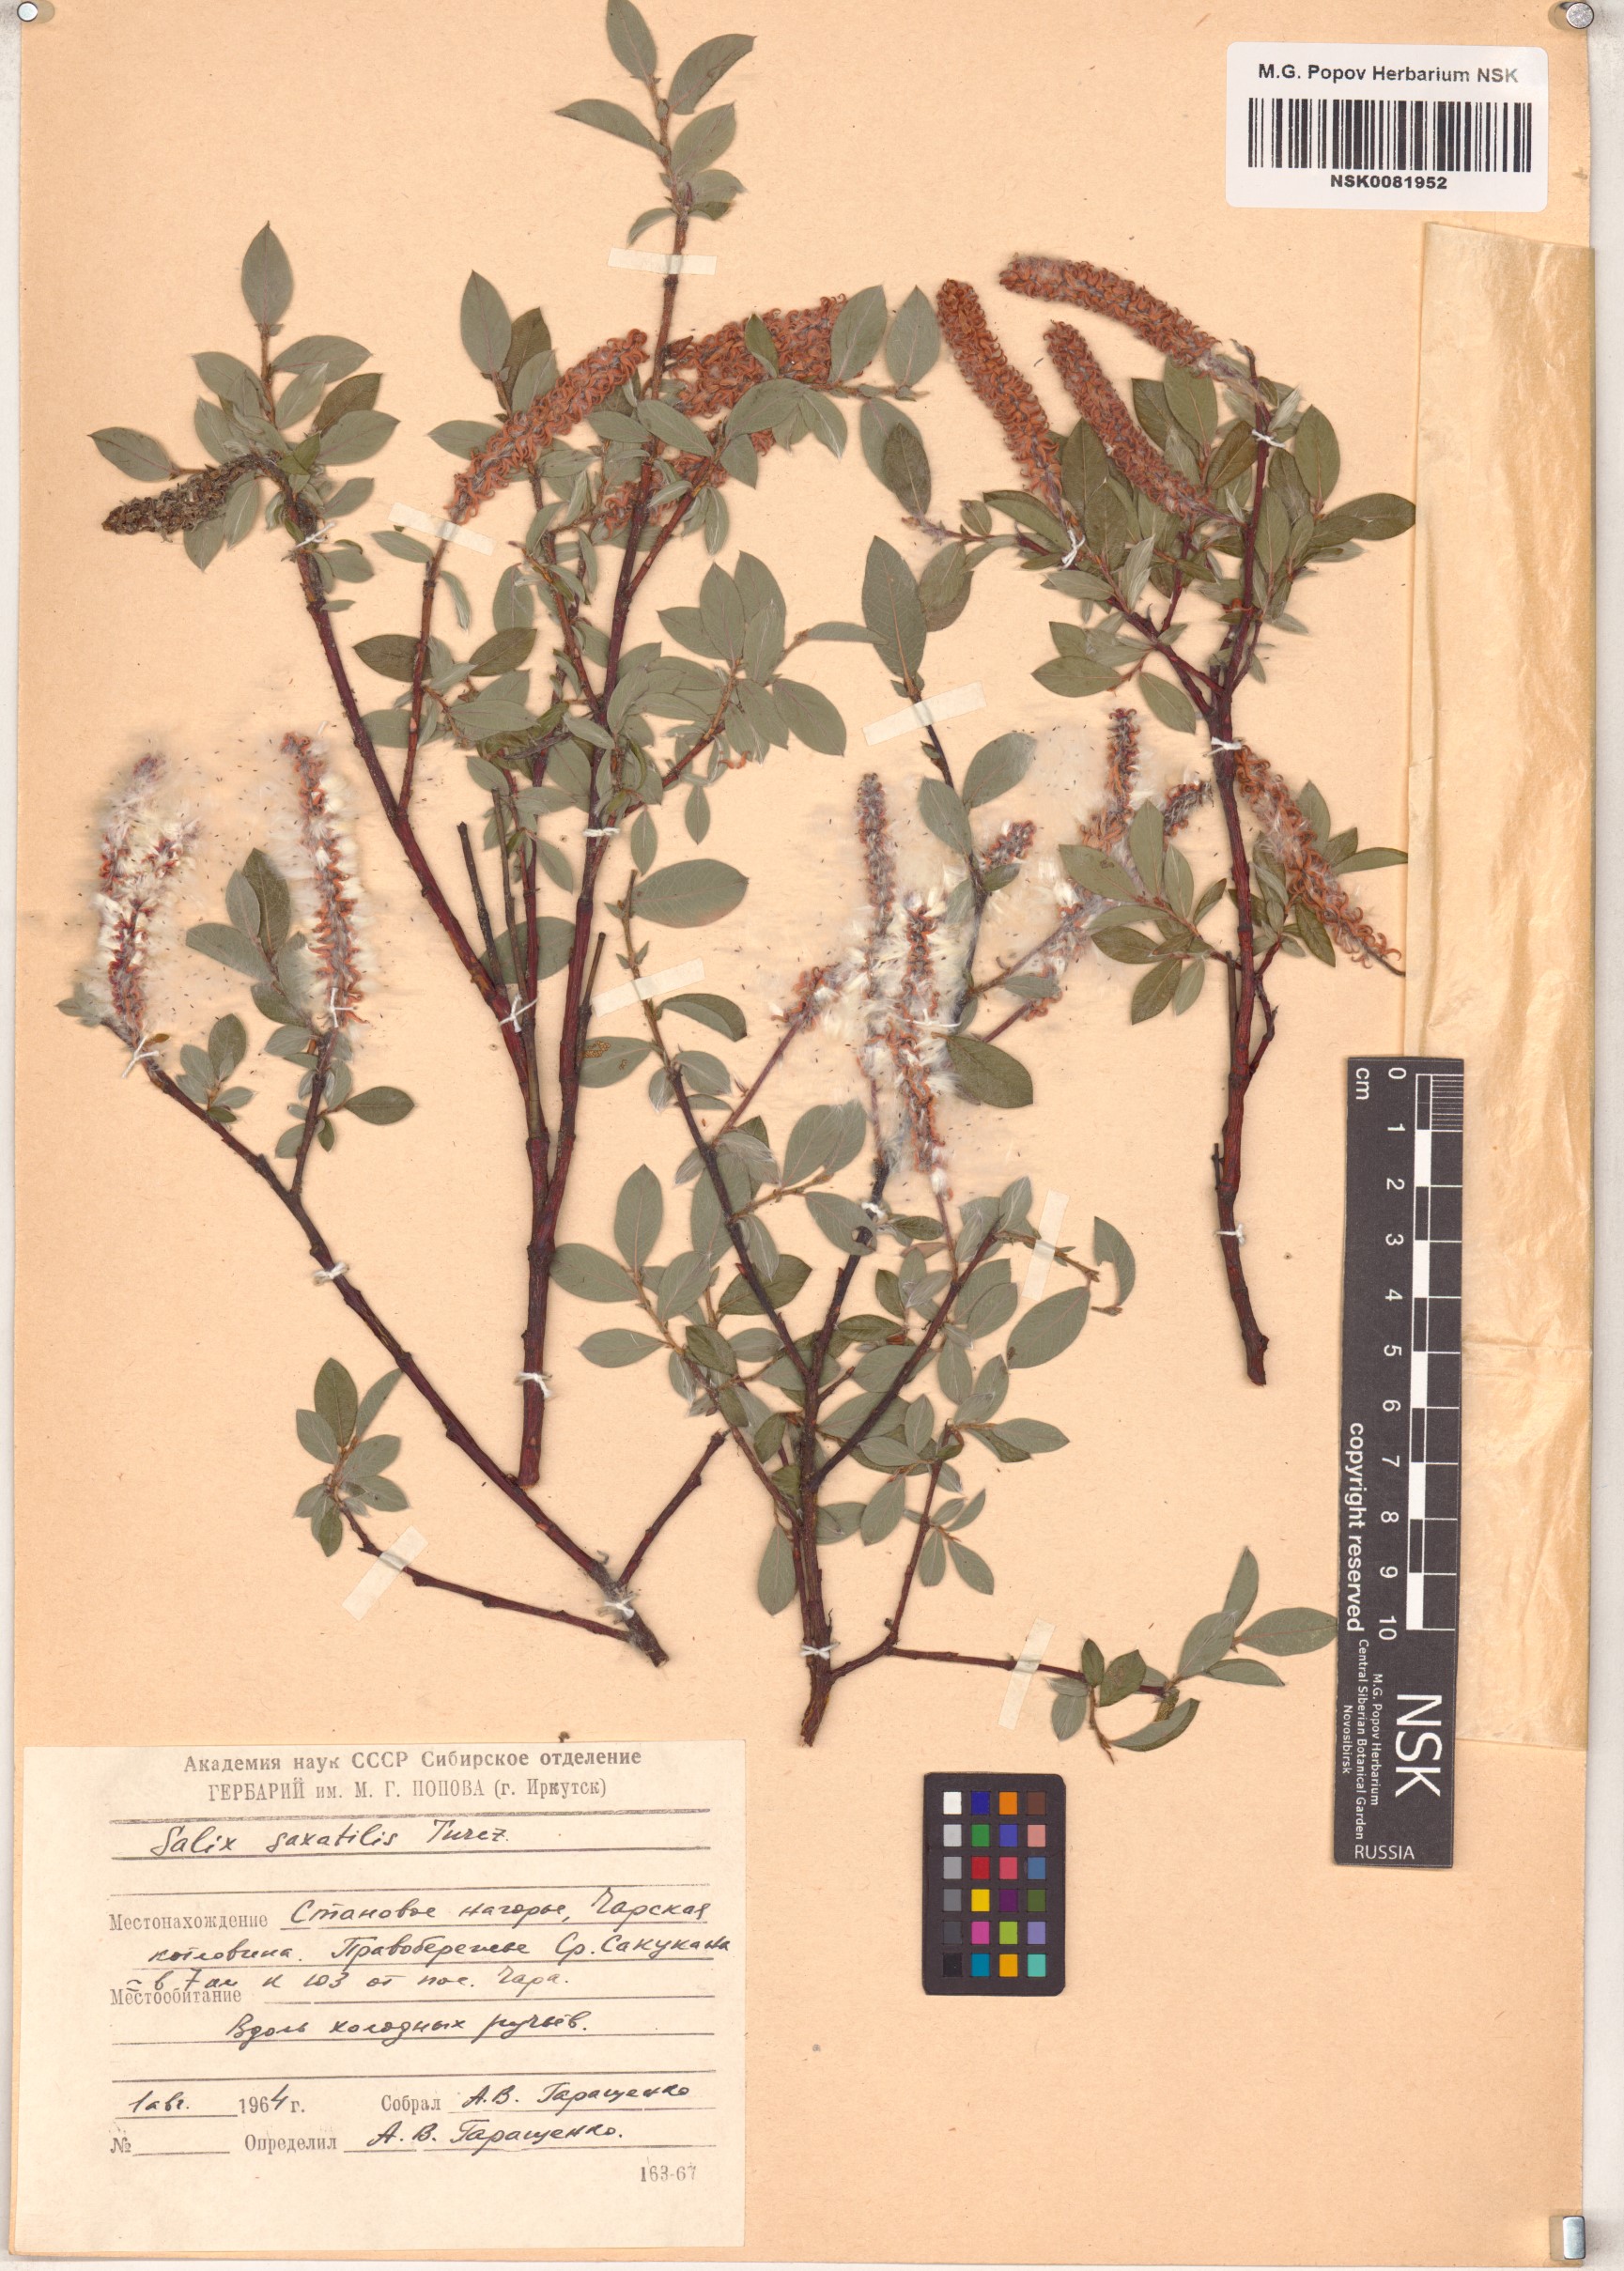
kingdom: Plantae
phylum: Tracheophyta
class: Magnoliopsida
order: Malpighiales
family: Salicaceae
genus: Salix
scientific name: Salix saxatilis
